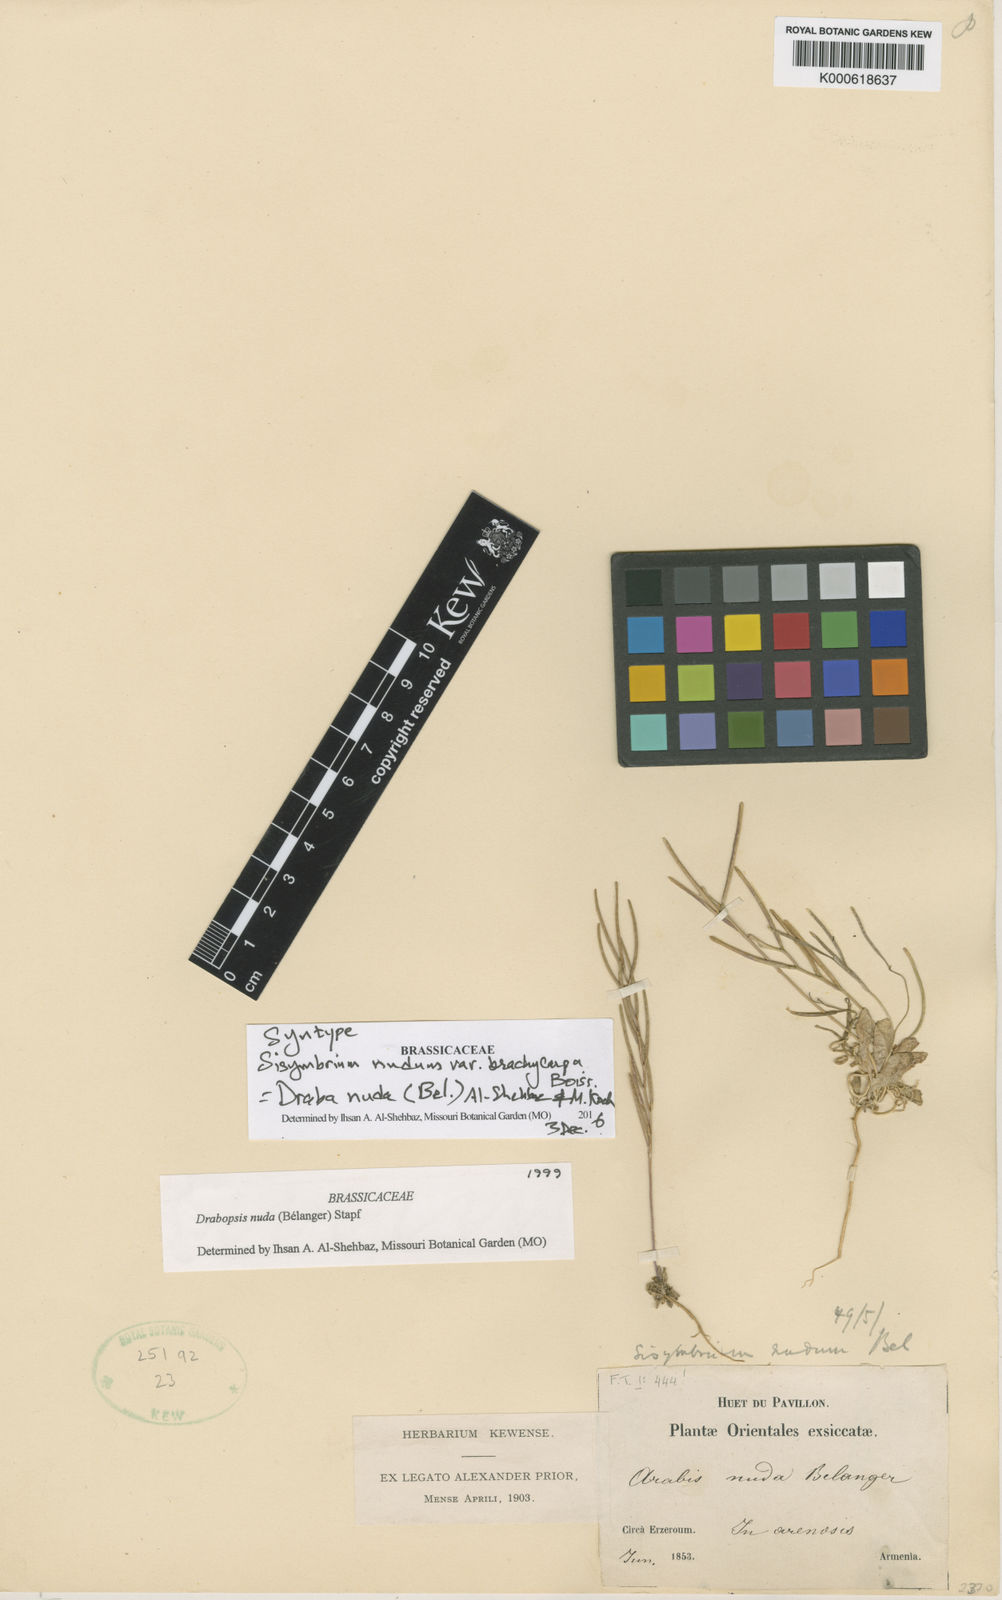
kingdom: Plantae
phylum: Tracheophyta
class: Magnoliopsida
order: Brassicales
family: Brassicaceae
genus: Draba
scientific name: Draba nuda
